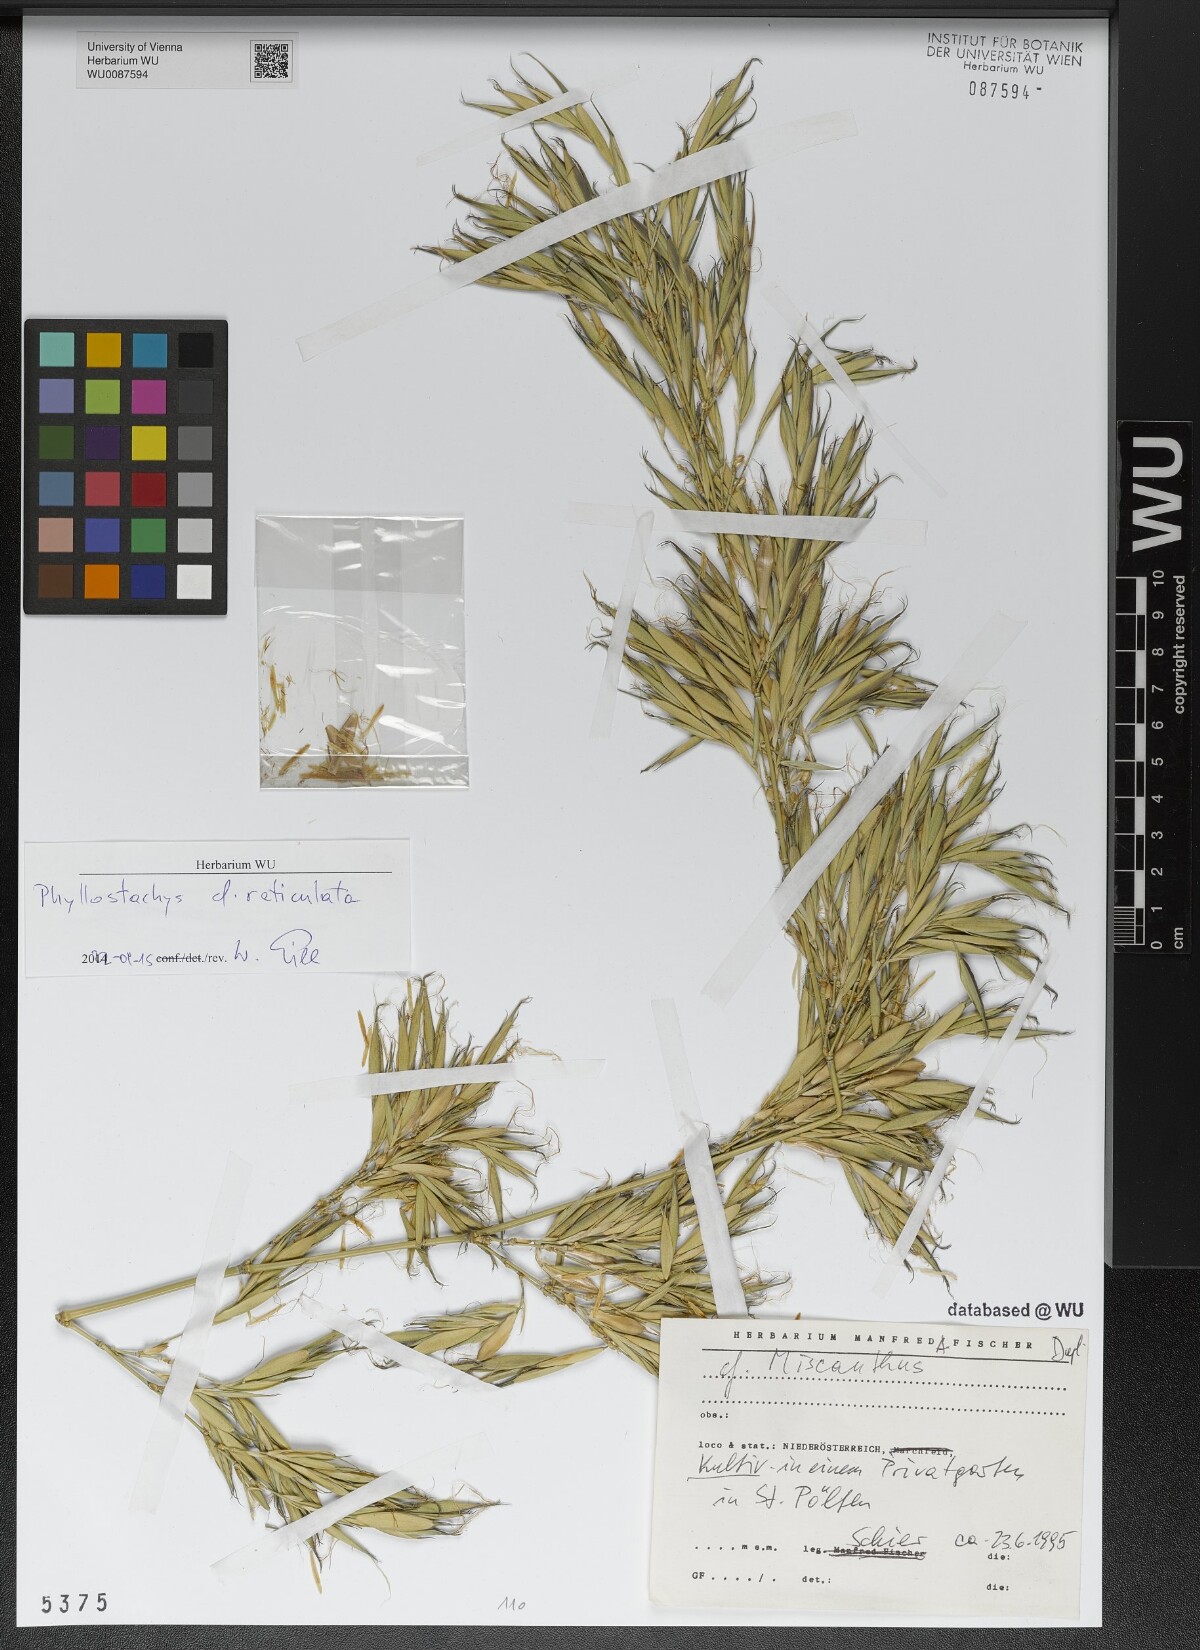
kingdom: Plantae
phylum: Tracheophyta
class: Liliopsida
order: Poales
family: Poaceae
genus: Phyllostachys
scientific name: Phyllostachys reticulata
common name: Bamboo
